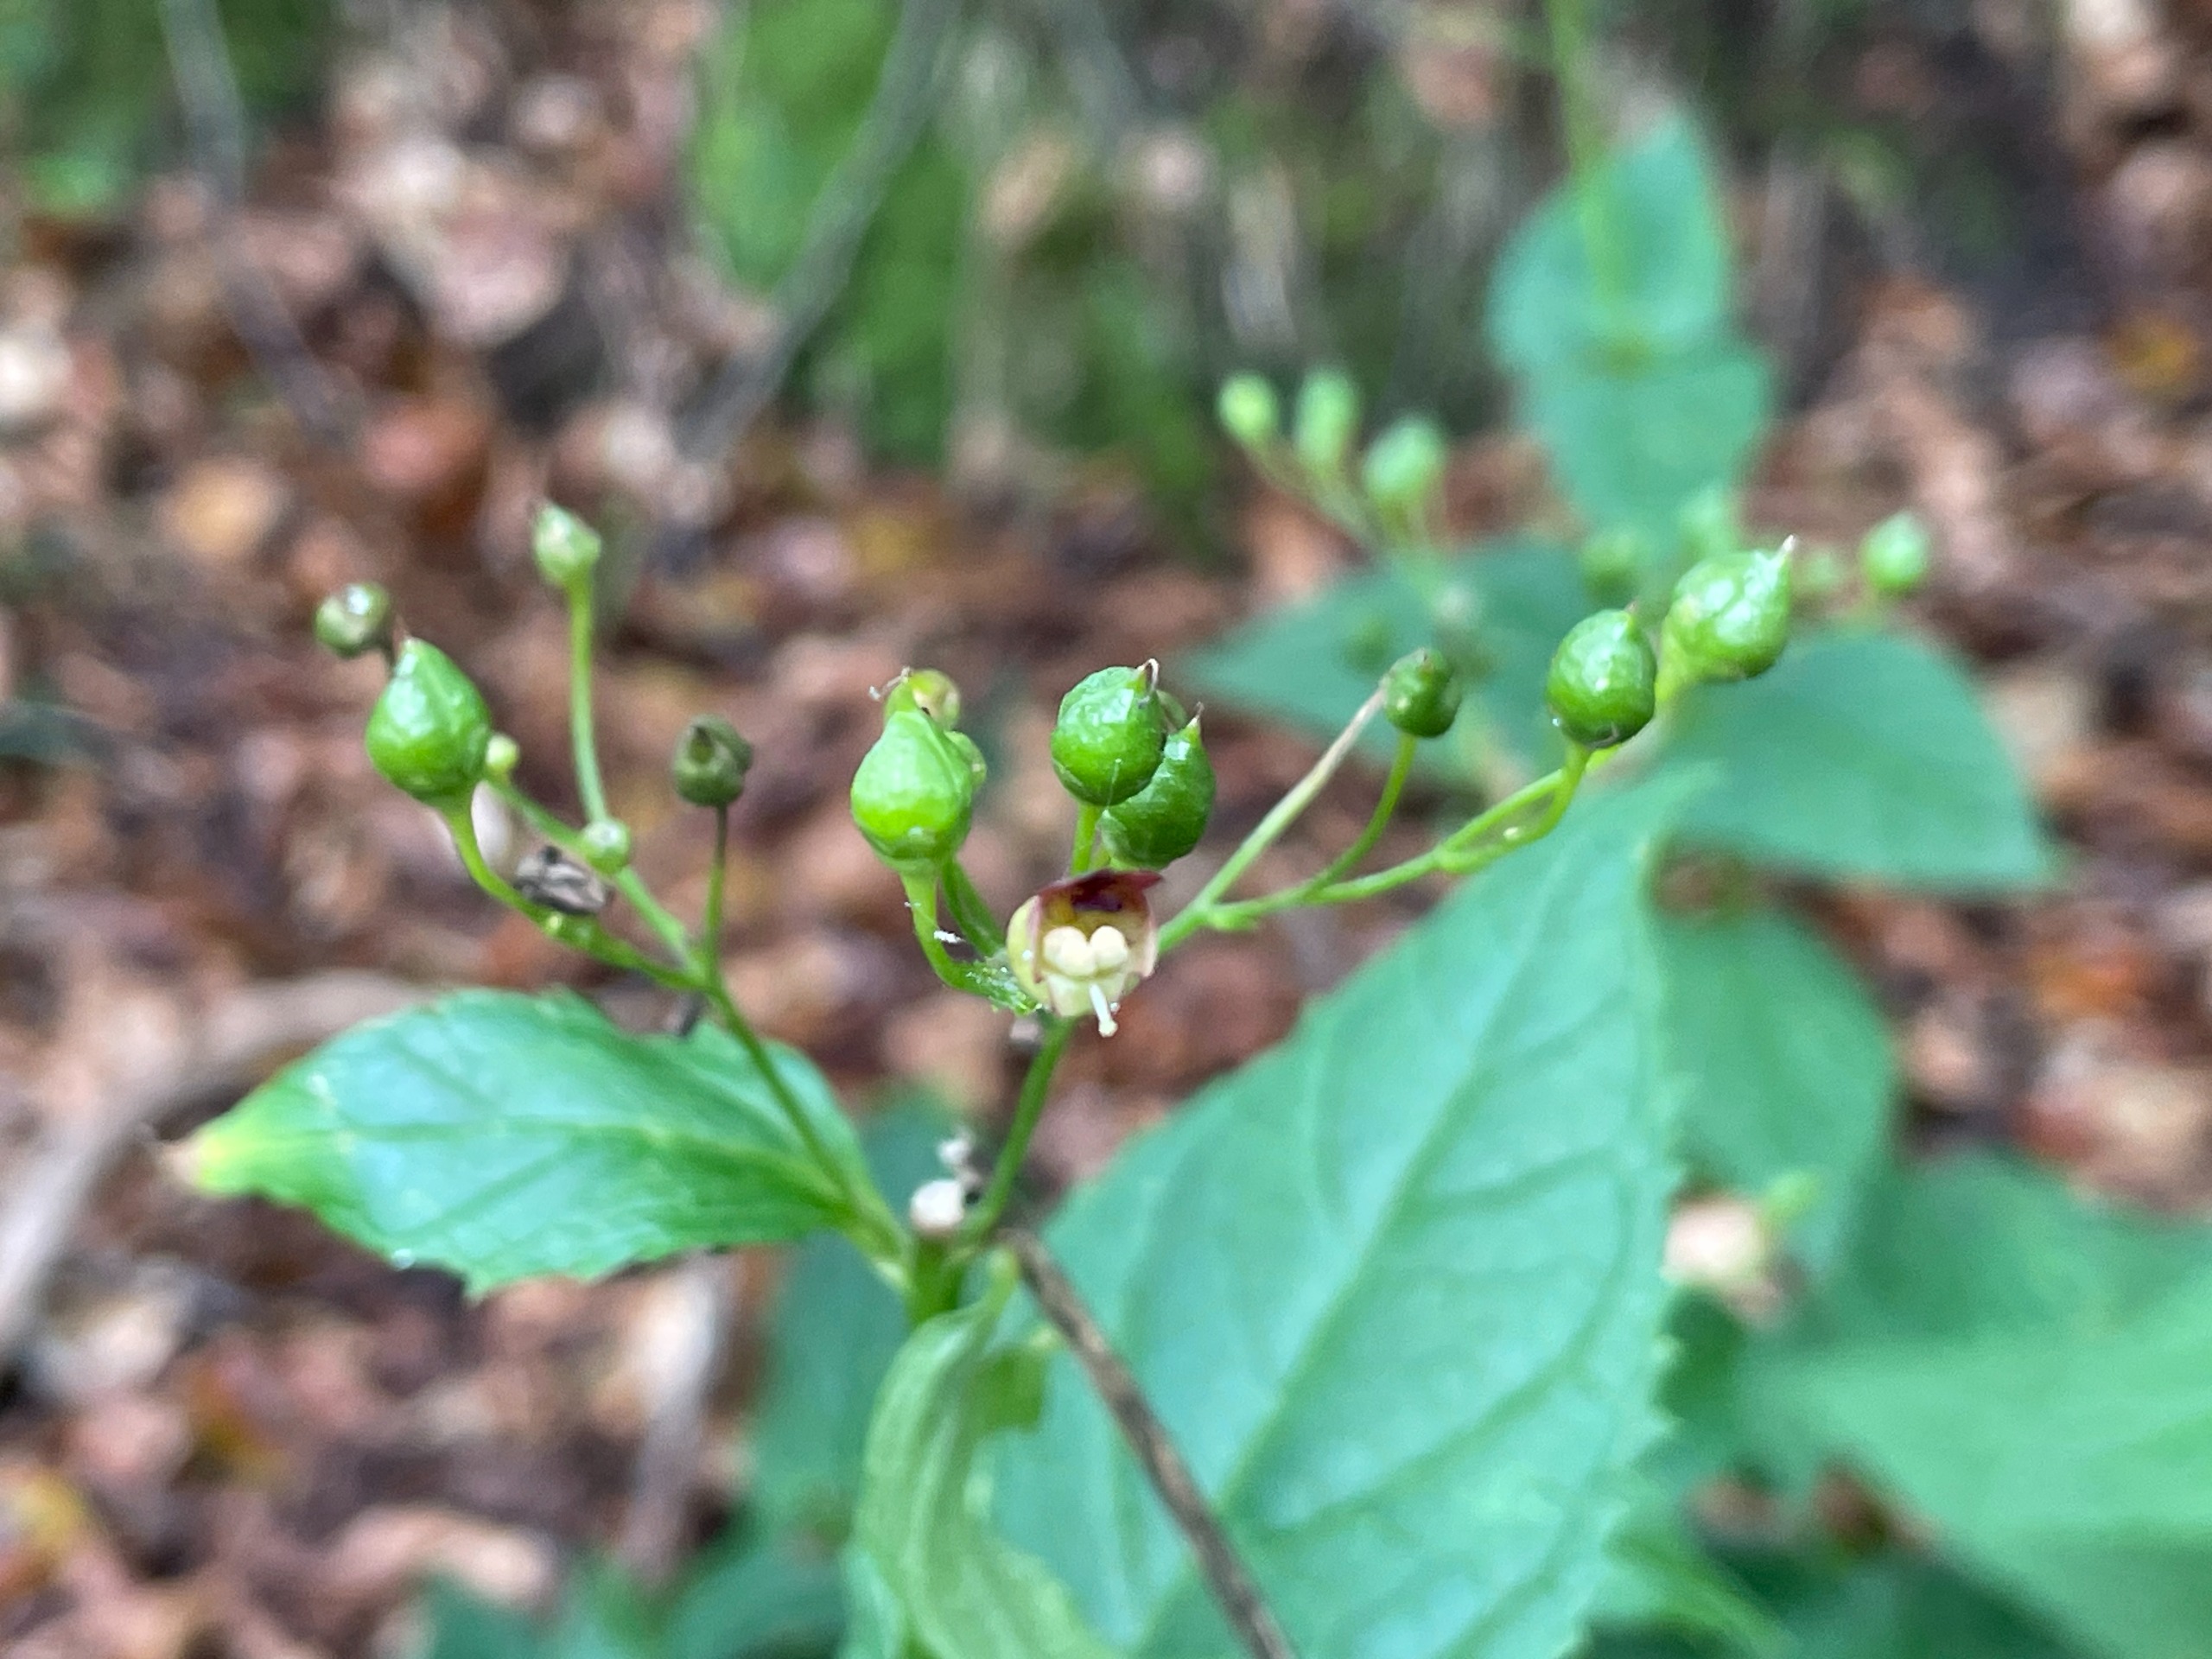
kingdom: Plantae
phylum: Tracheophyta
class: Magnoliopsida
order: Lamiales
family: Scrophulariaceae
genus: Scrophularia
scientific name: Scrophularia nodosa
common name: Knoldet brunrod
